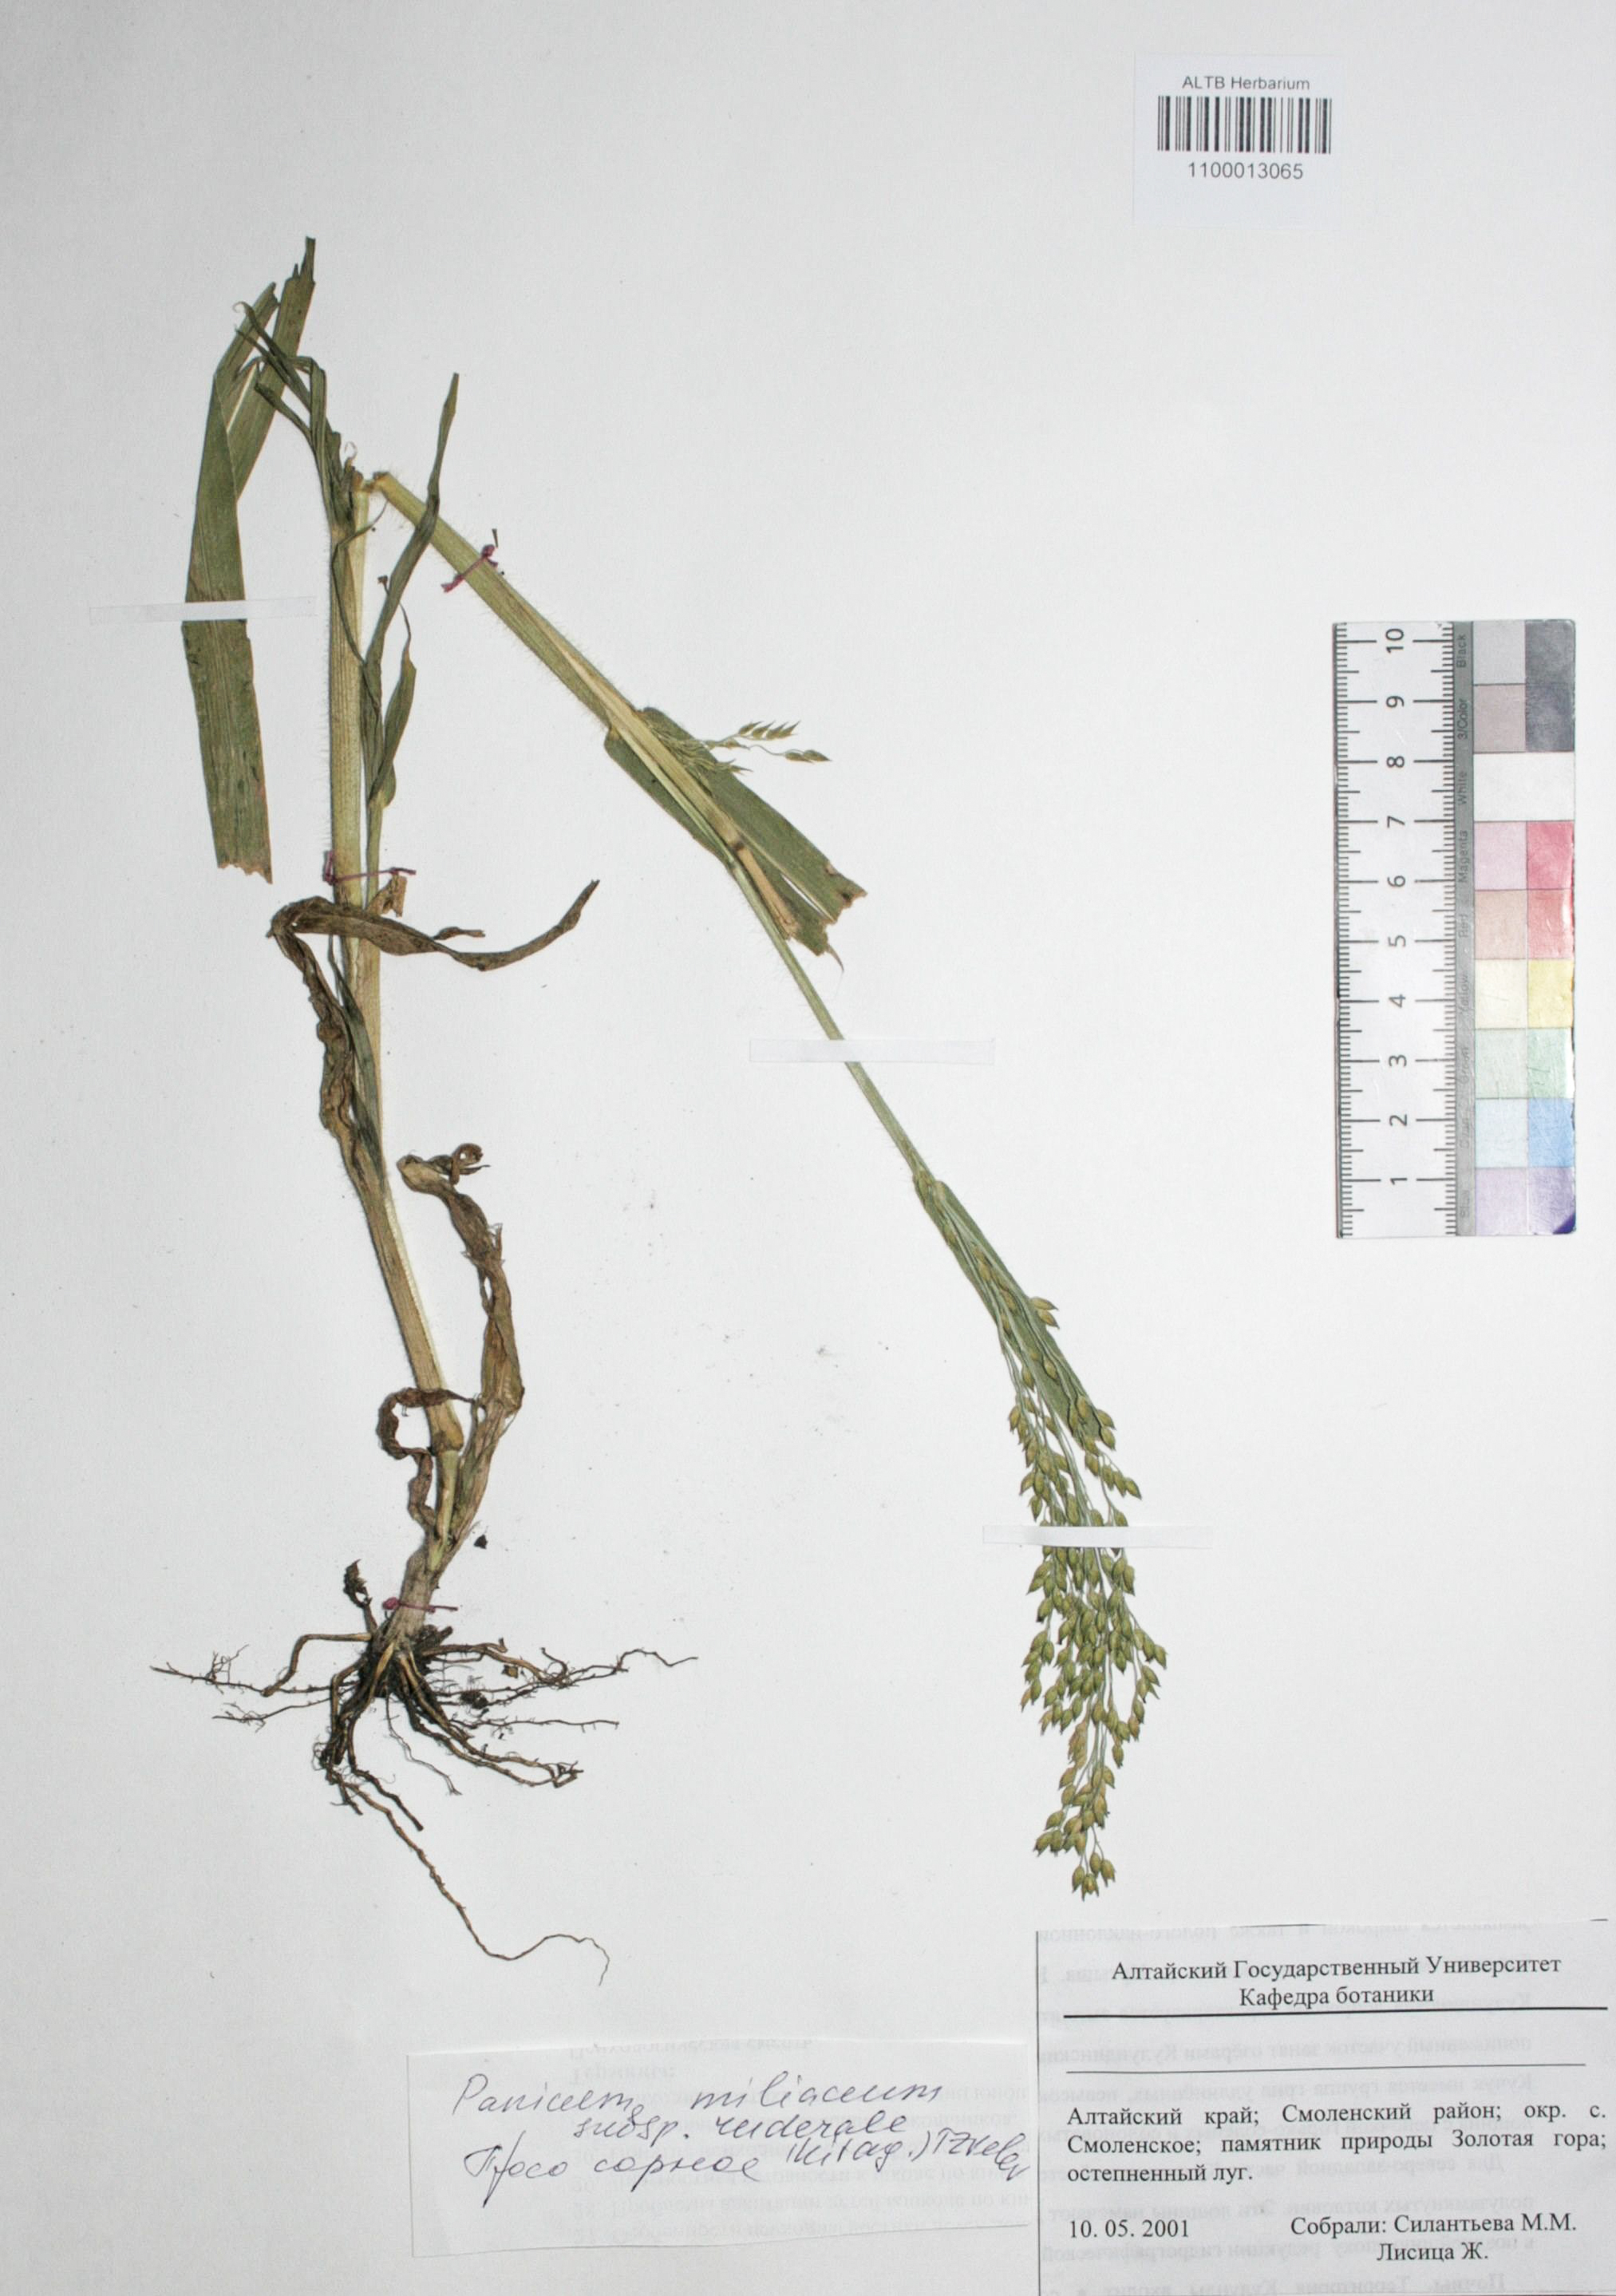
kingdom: Plantae
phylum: Tracheophyta
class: Liliopsida
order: Poales
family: Poaceae
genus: Panicum
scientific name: Panicum miliaceum
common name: Common millet
